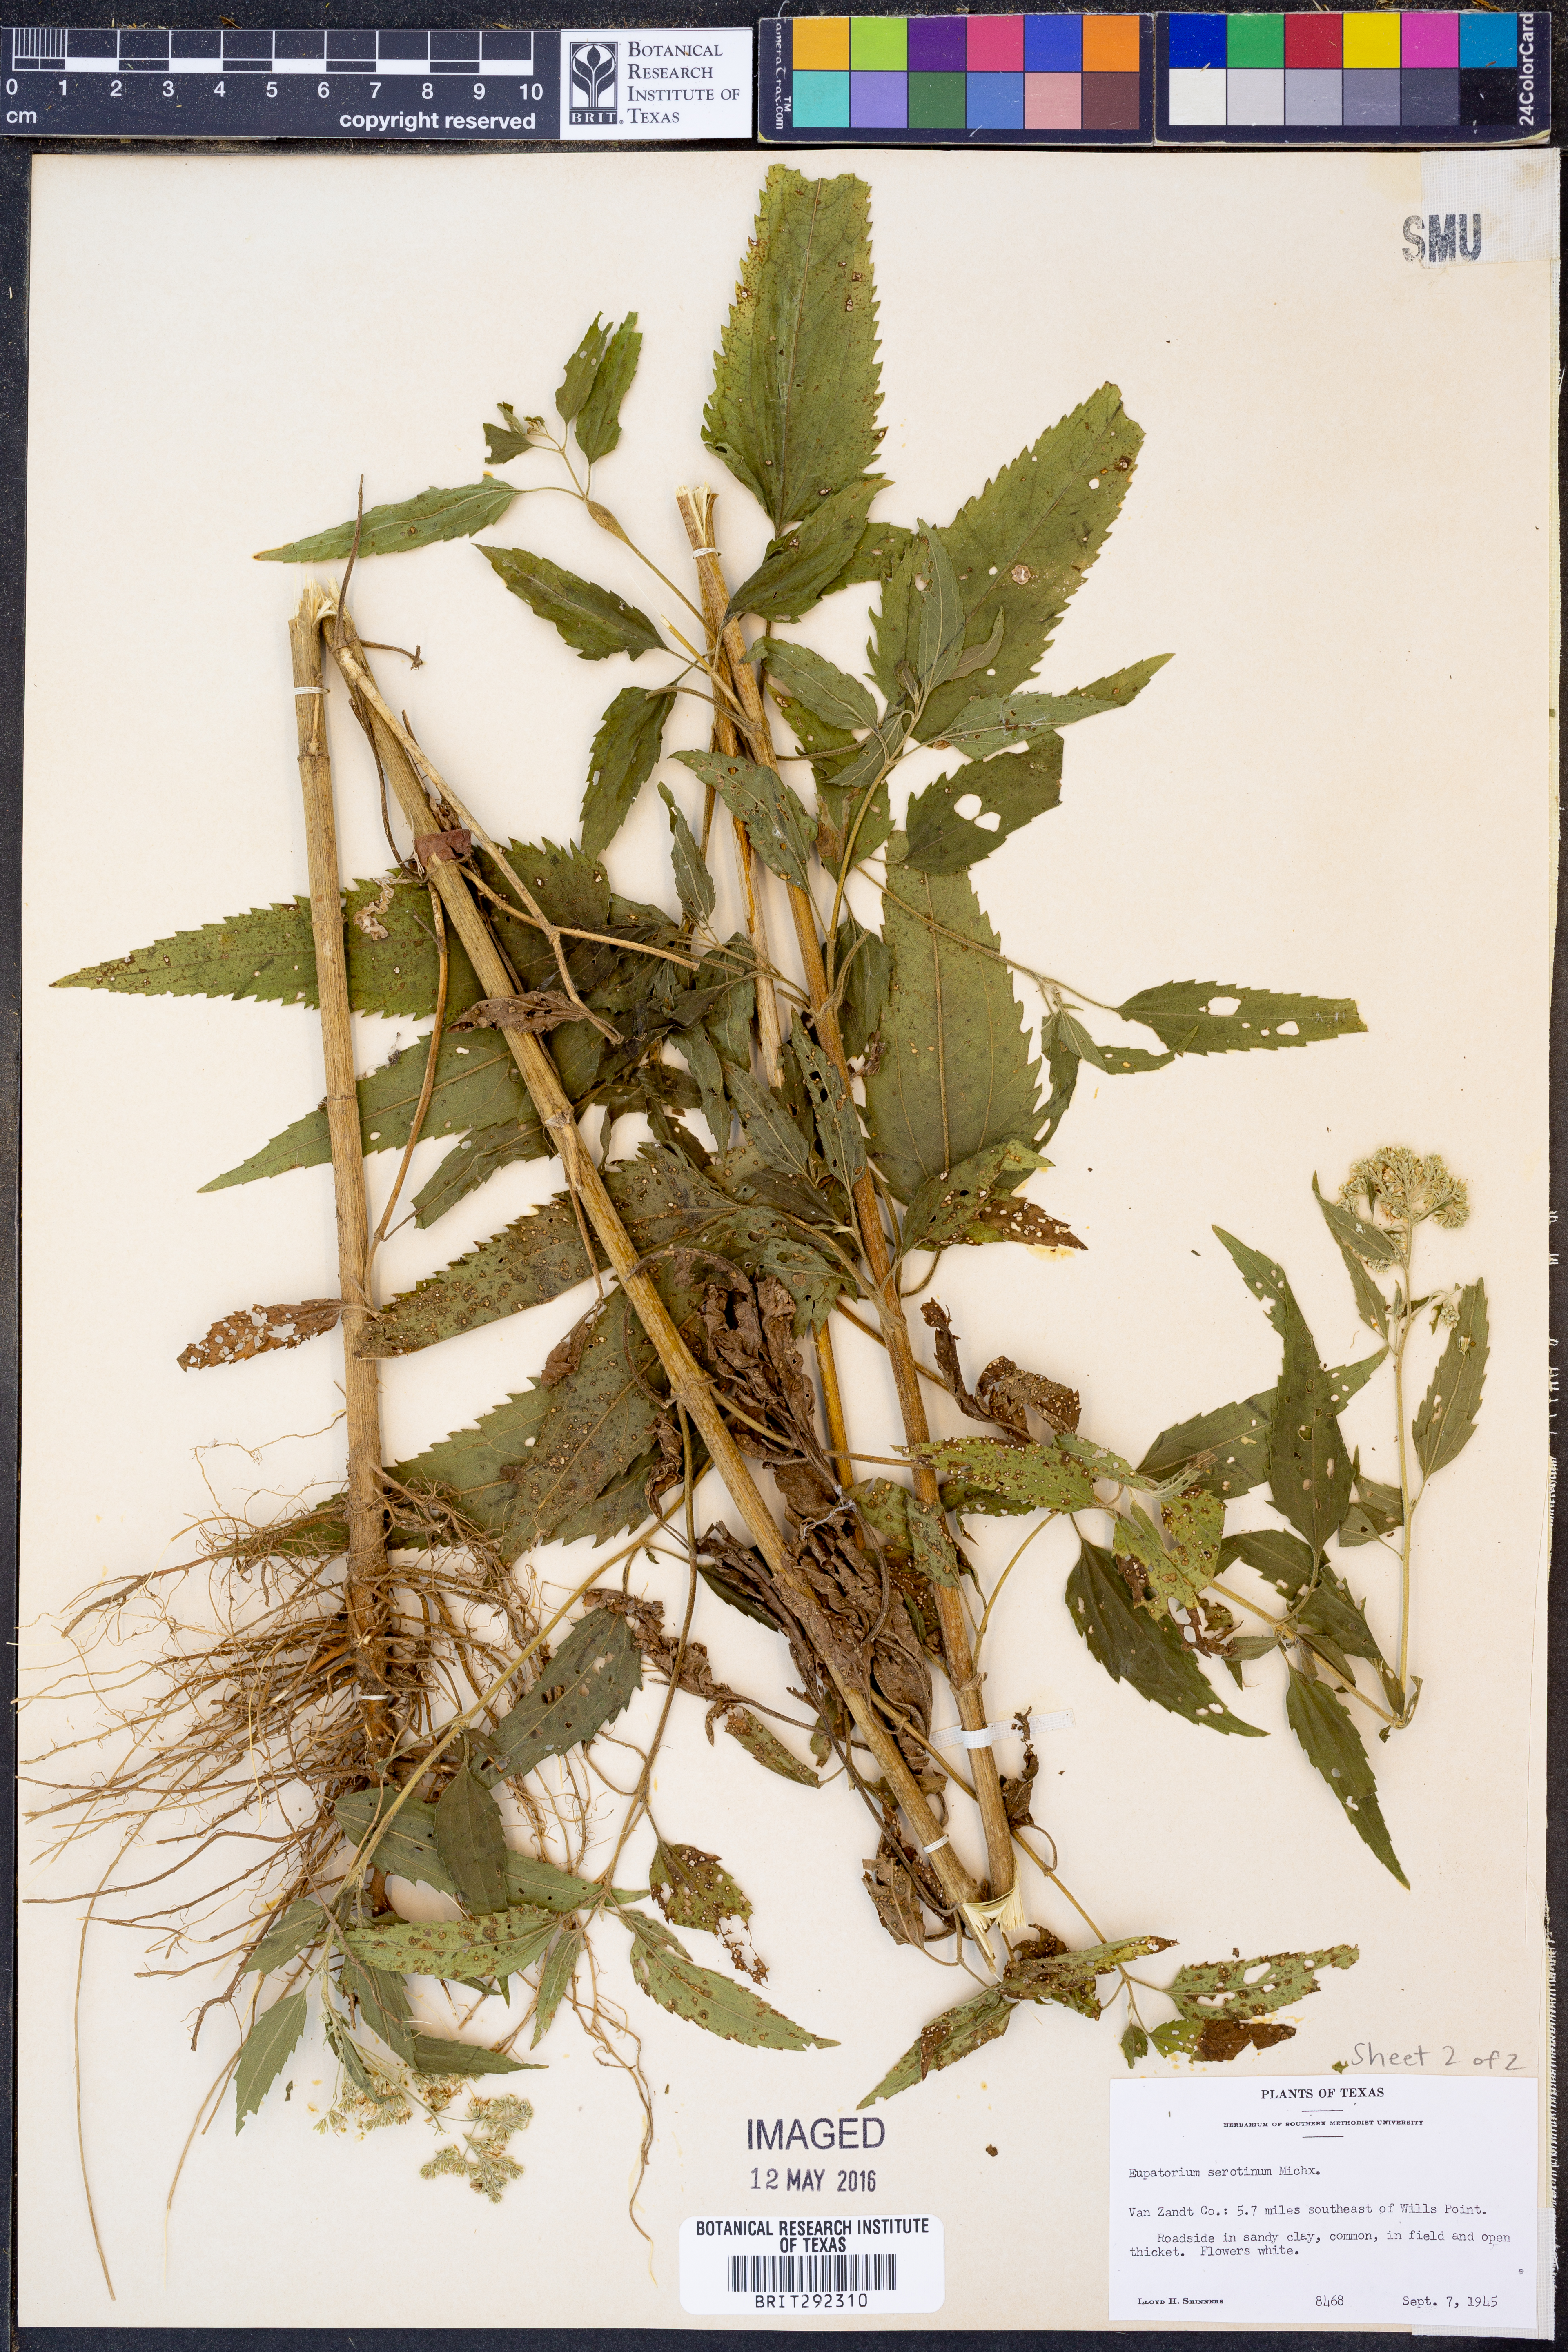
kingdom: Plantae
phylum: Tracheophyta
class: Magnoliopsida
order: Asterales
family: Asteraceae
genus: Eupatorium
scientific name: Eupatorium serotinum
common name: Late boneset
